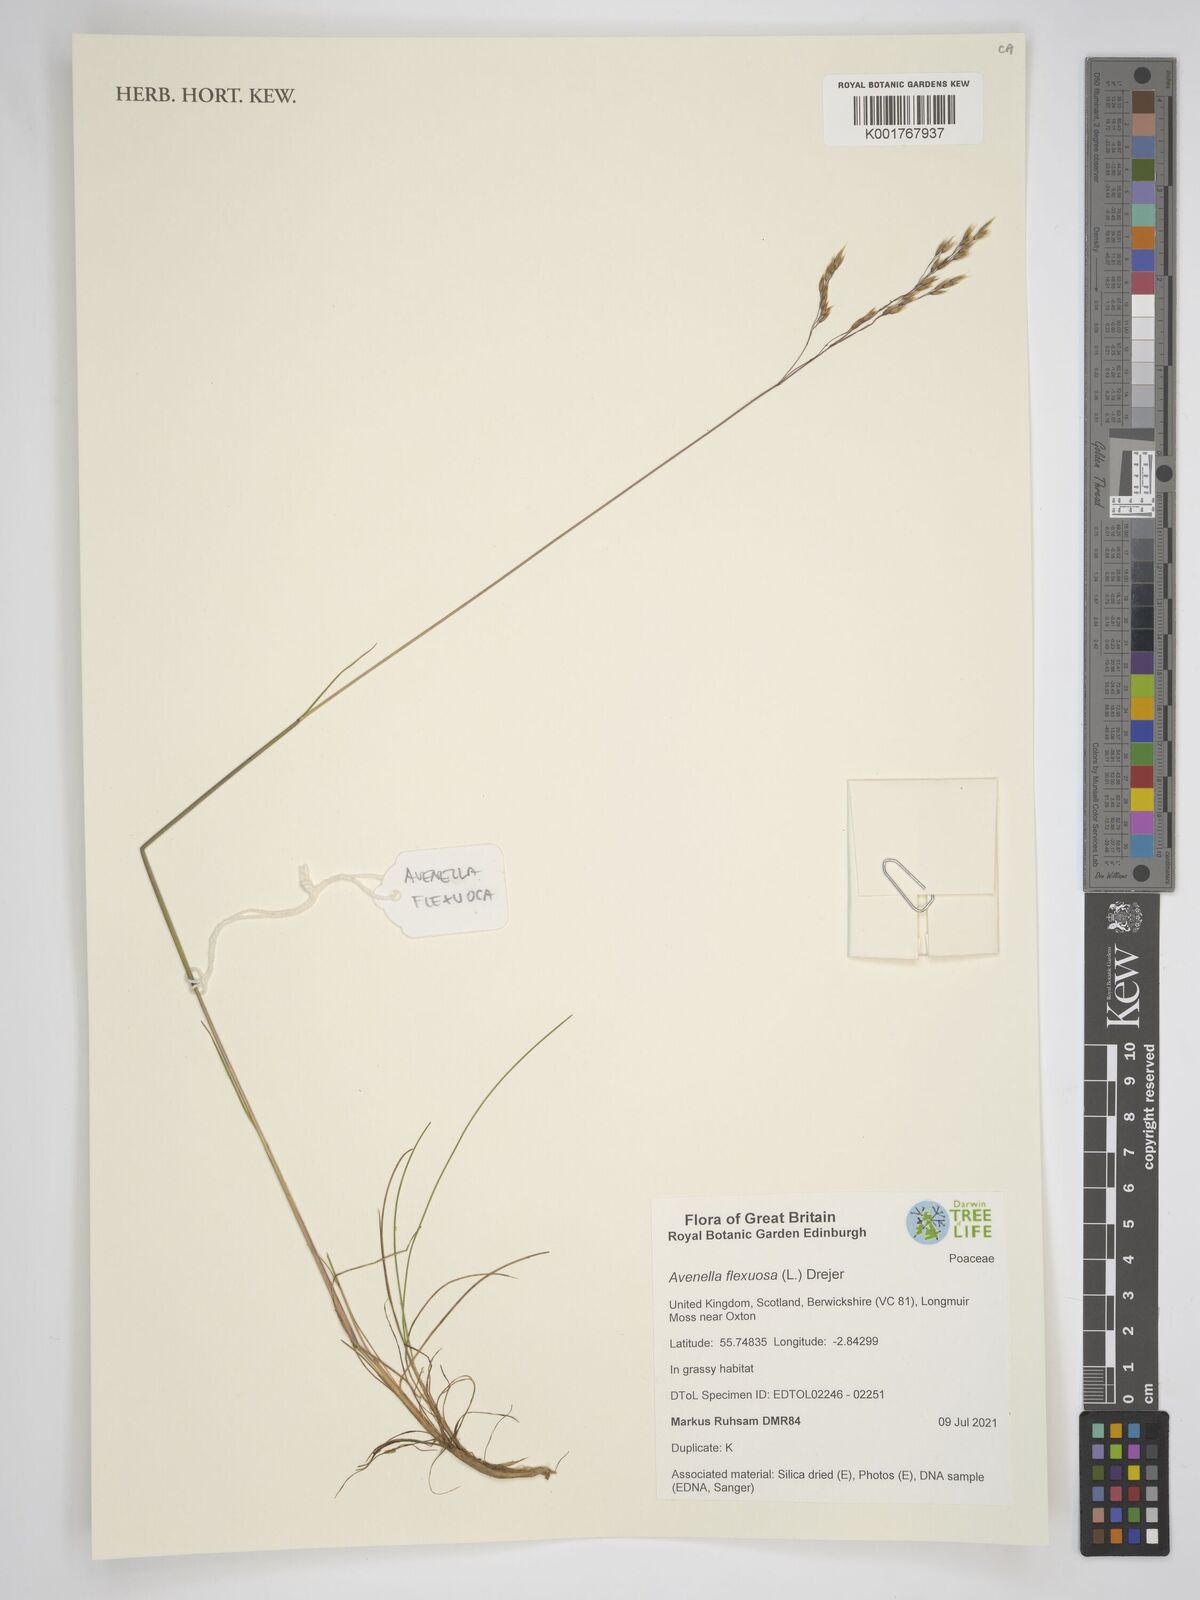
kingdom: Plantae
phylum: Tracheophyta
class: Liliopsida
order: Poales
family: Poaceae
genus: Avenella
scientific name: Avenella flexuosa
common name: Wavy hairgrass
